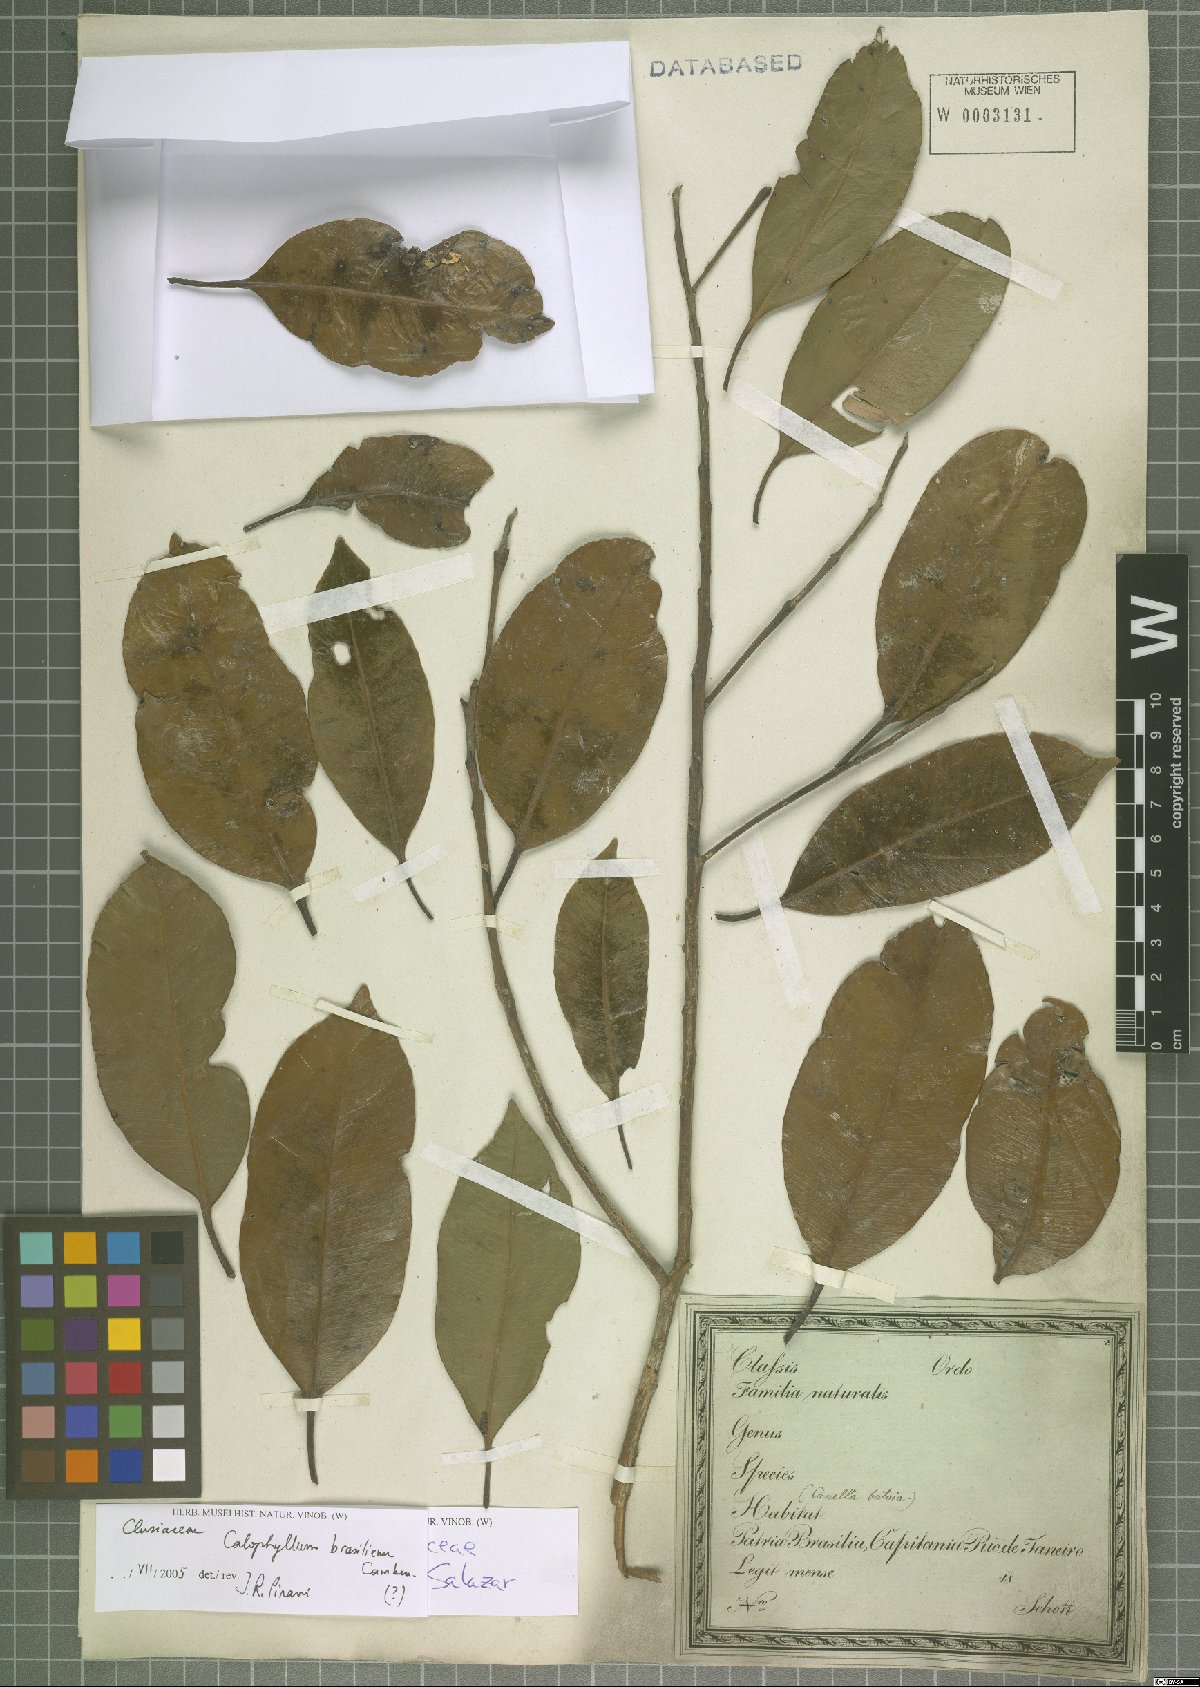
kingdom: Plantae
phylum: Tracheophyta
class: Magnoliopsida
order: Malpighiales
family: Calophyllaceae
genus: Calophyllum
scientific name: Calophyllum brasiliense
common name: Santa maria
